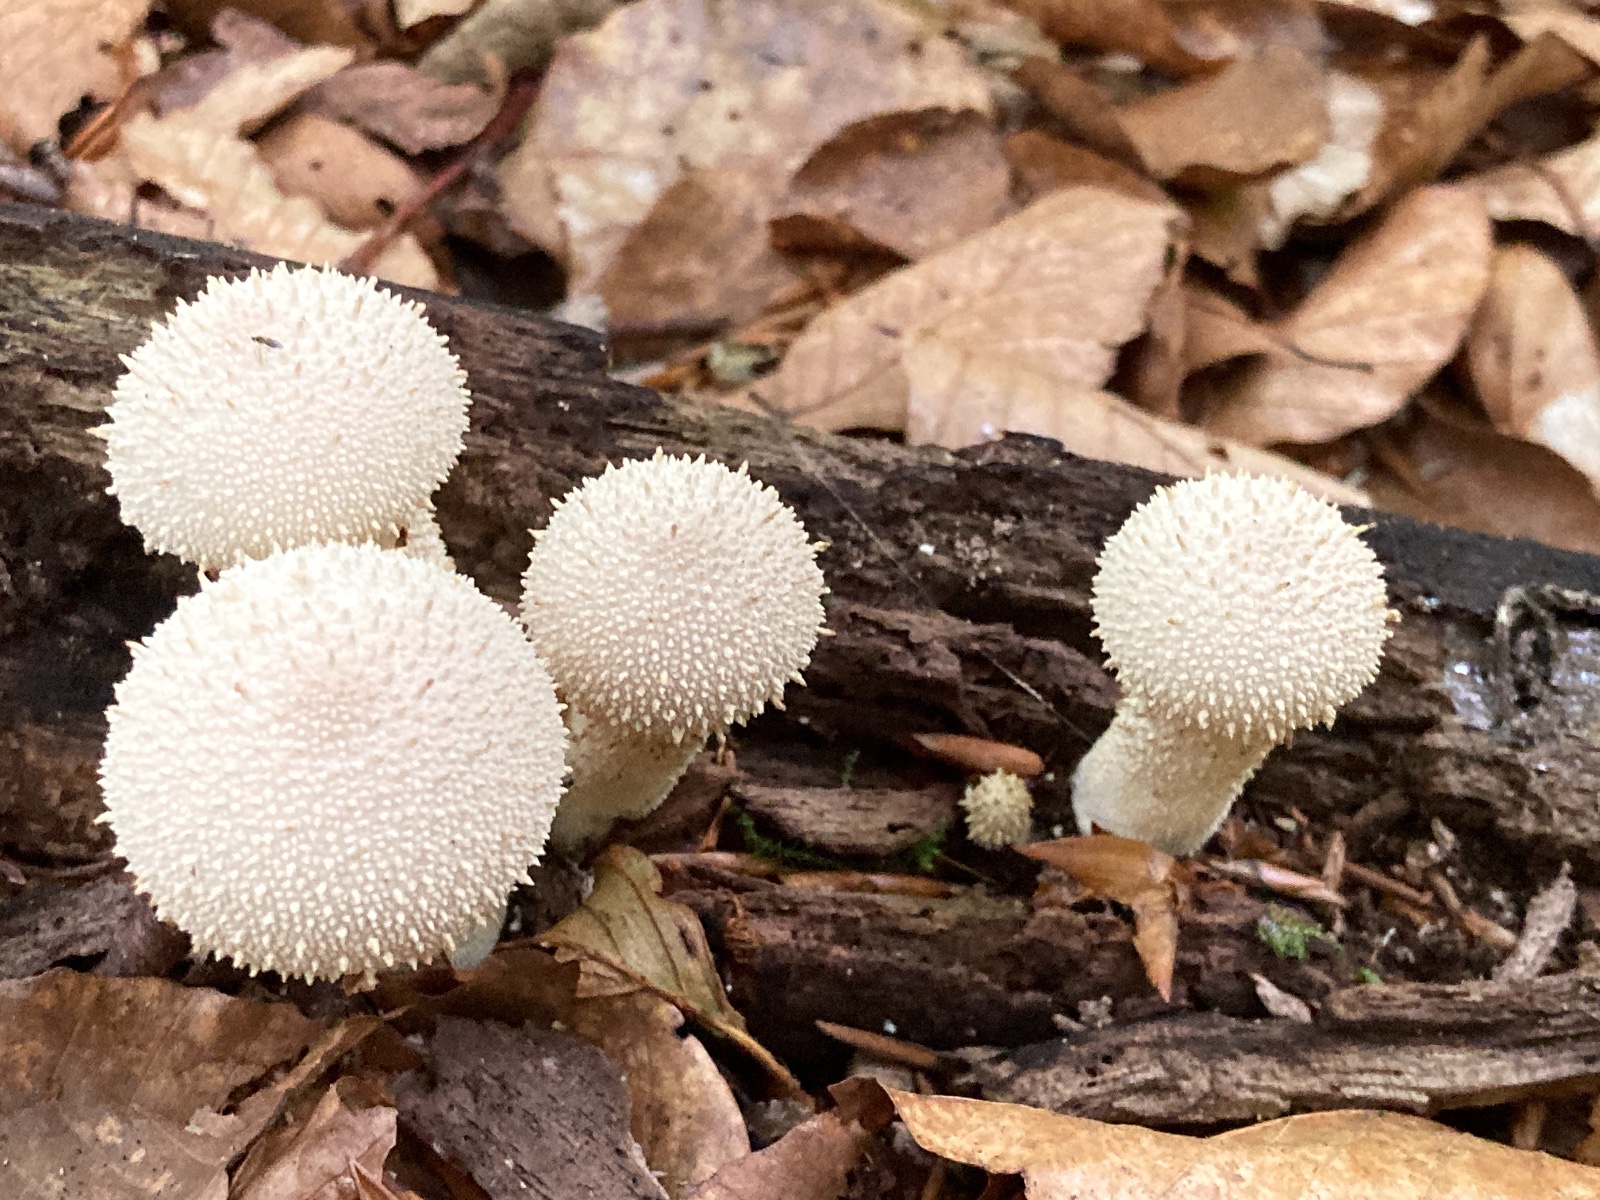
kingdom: Fungi
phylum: Basidiomycota
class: Agaricomycetes
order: Agaricales
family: Lycoperdaceae
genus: Lycoperdon
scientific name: Lycoperdon perlatum
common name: krystal-støvbold
